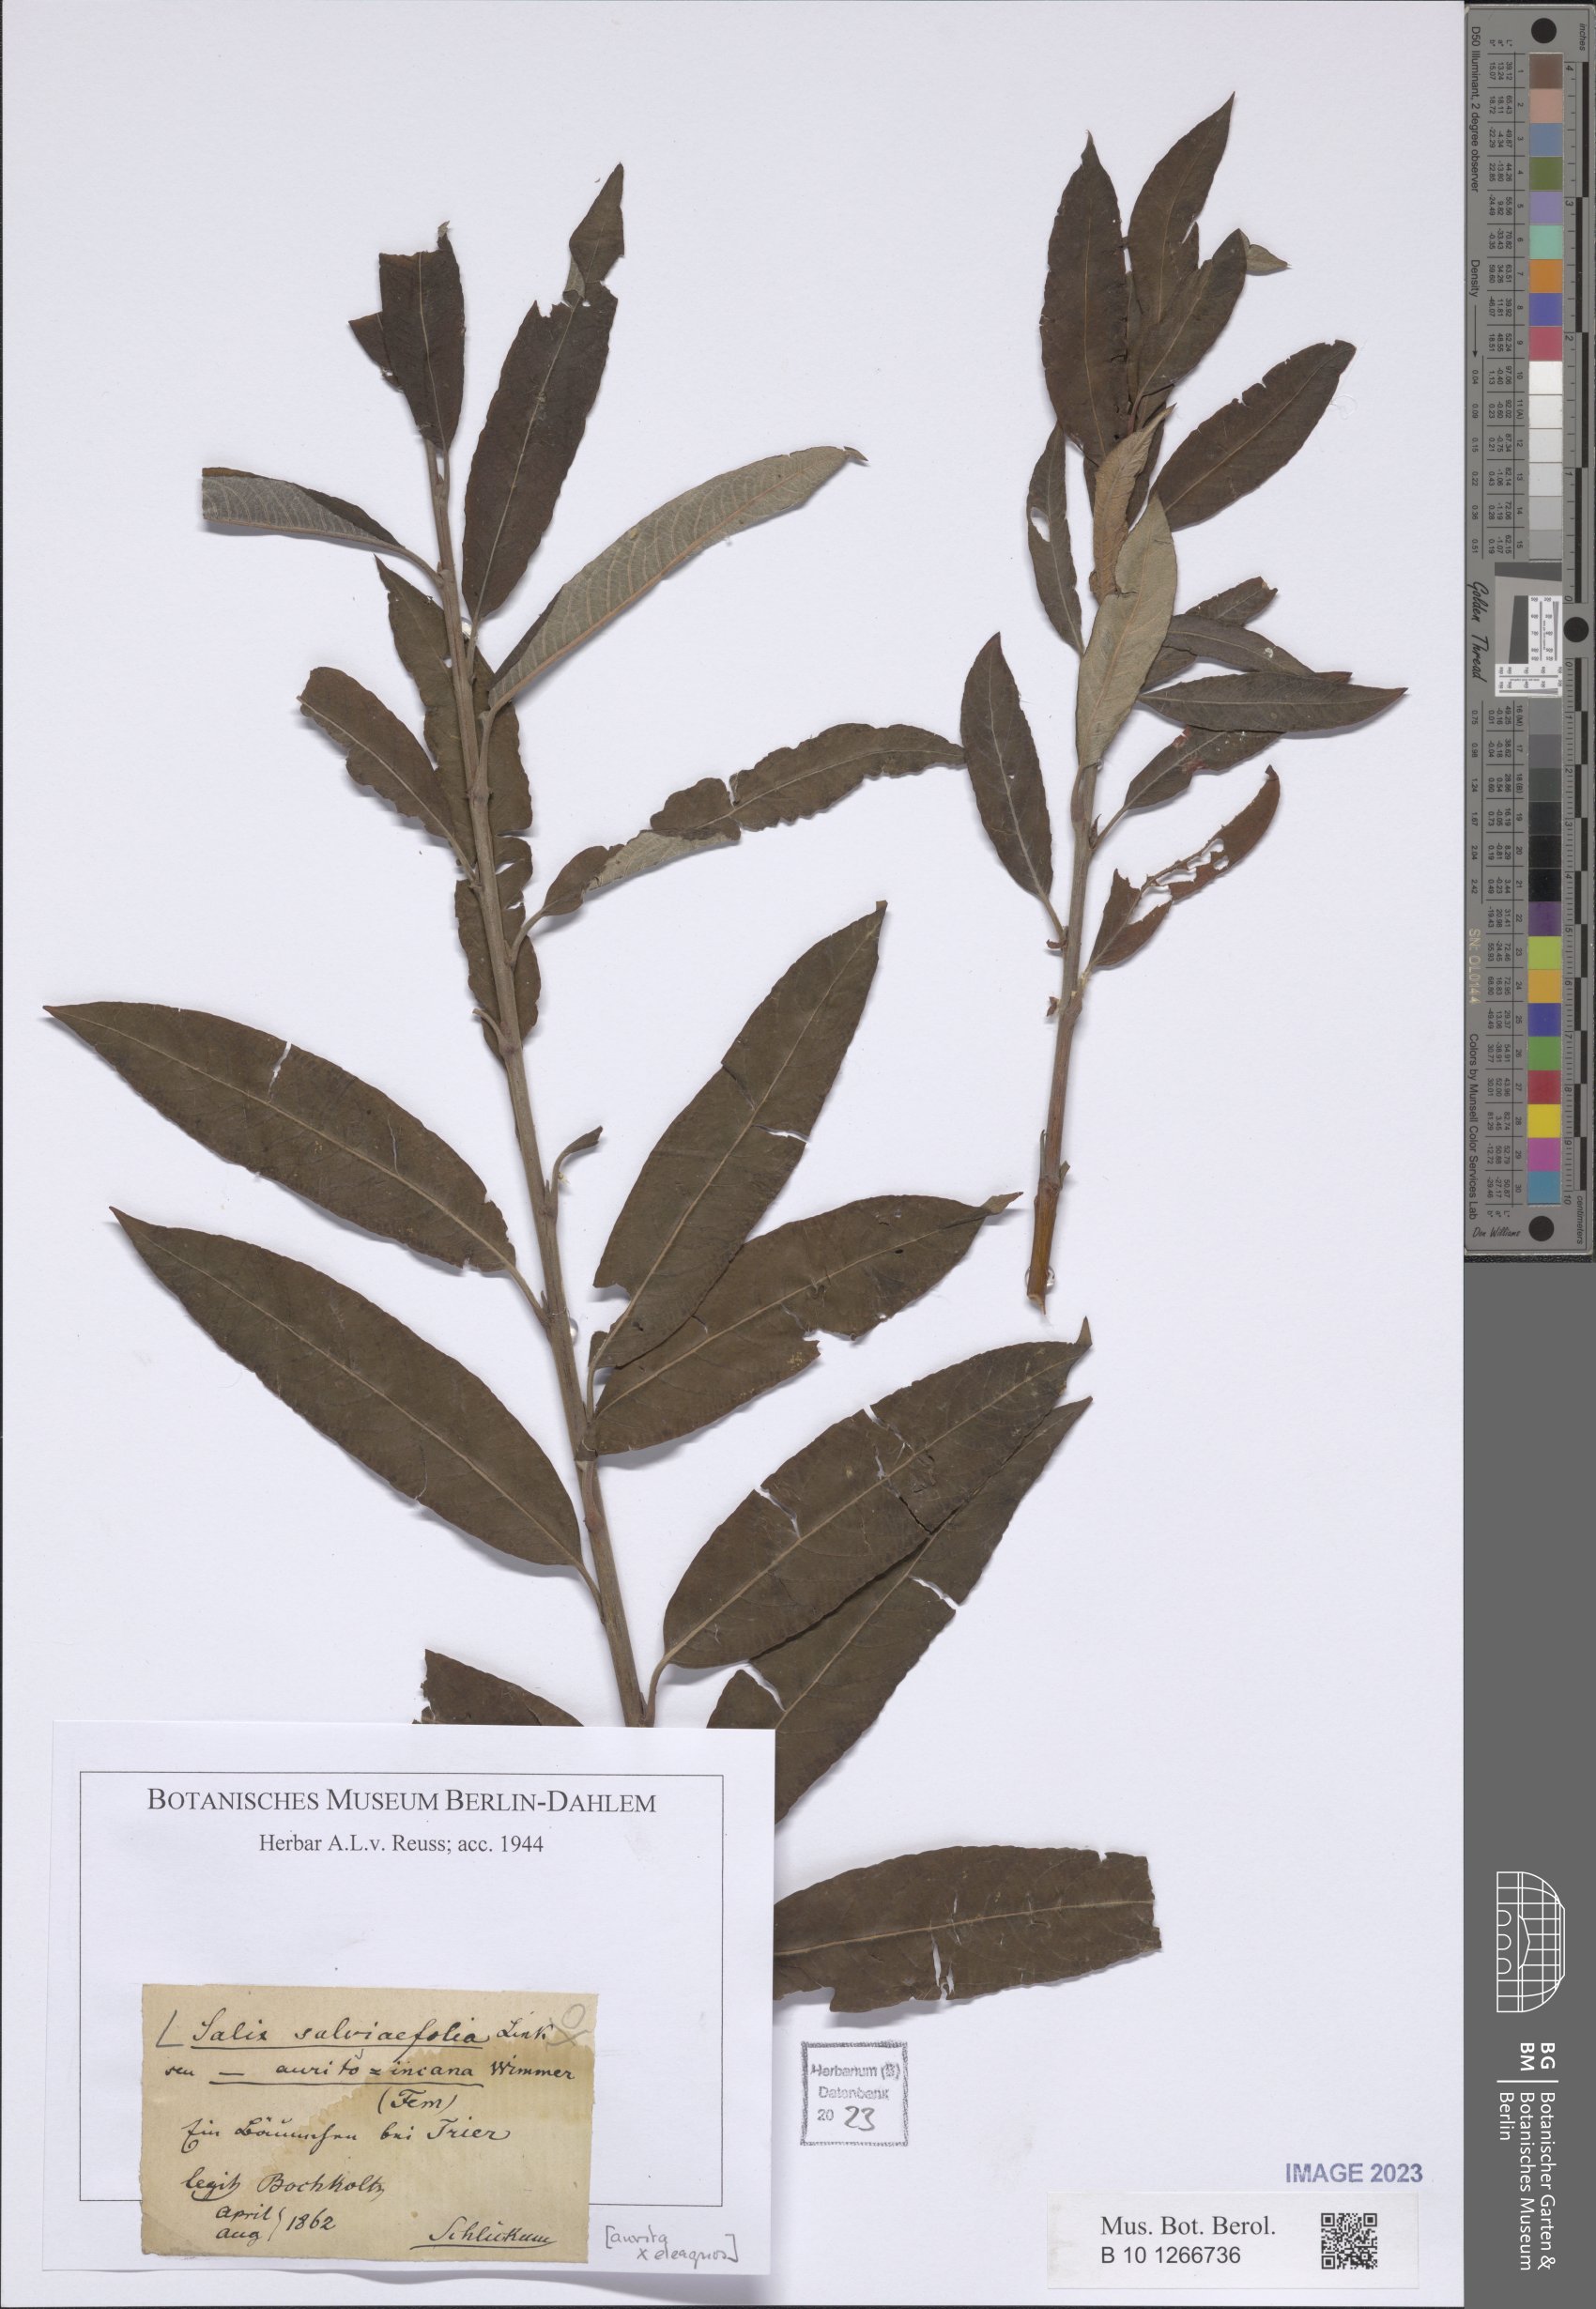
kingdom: Plantae
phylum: Tracheophyta
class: Magnoliopsida
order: Malpighiales
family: Salicaceae
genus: Salix
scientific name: Salix oleifolia
